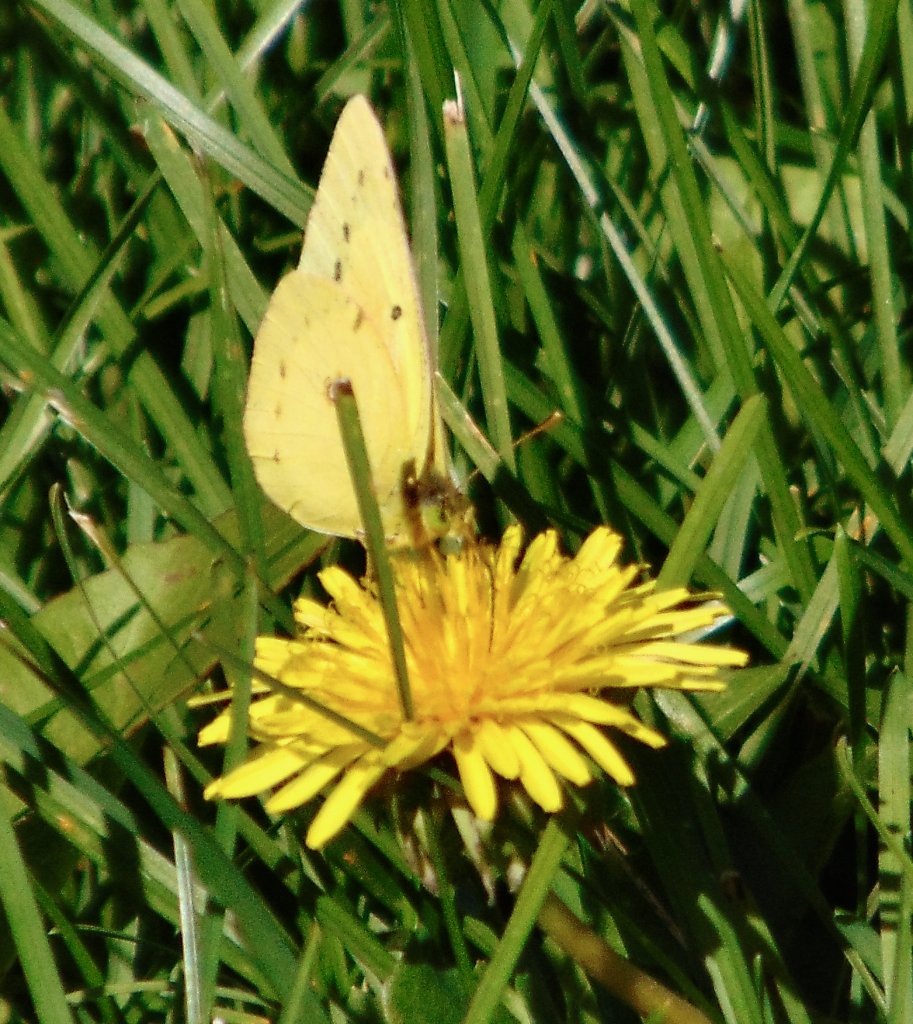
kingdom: Animalia
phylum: Arthropoda
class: Insecta
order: Lepidoptera
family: Pieridae
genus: Colias
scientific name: Colias eurytheme
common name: Orange Sulphur
